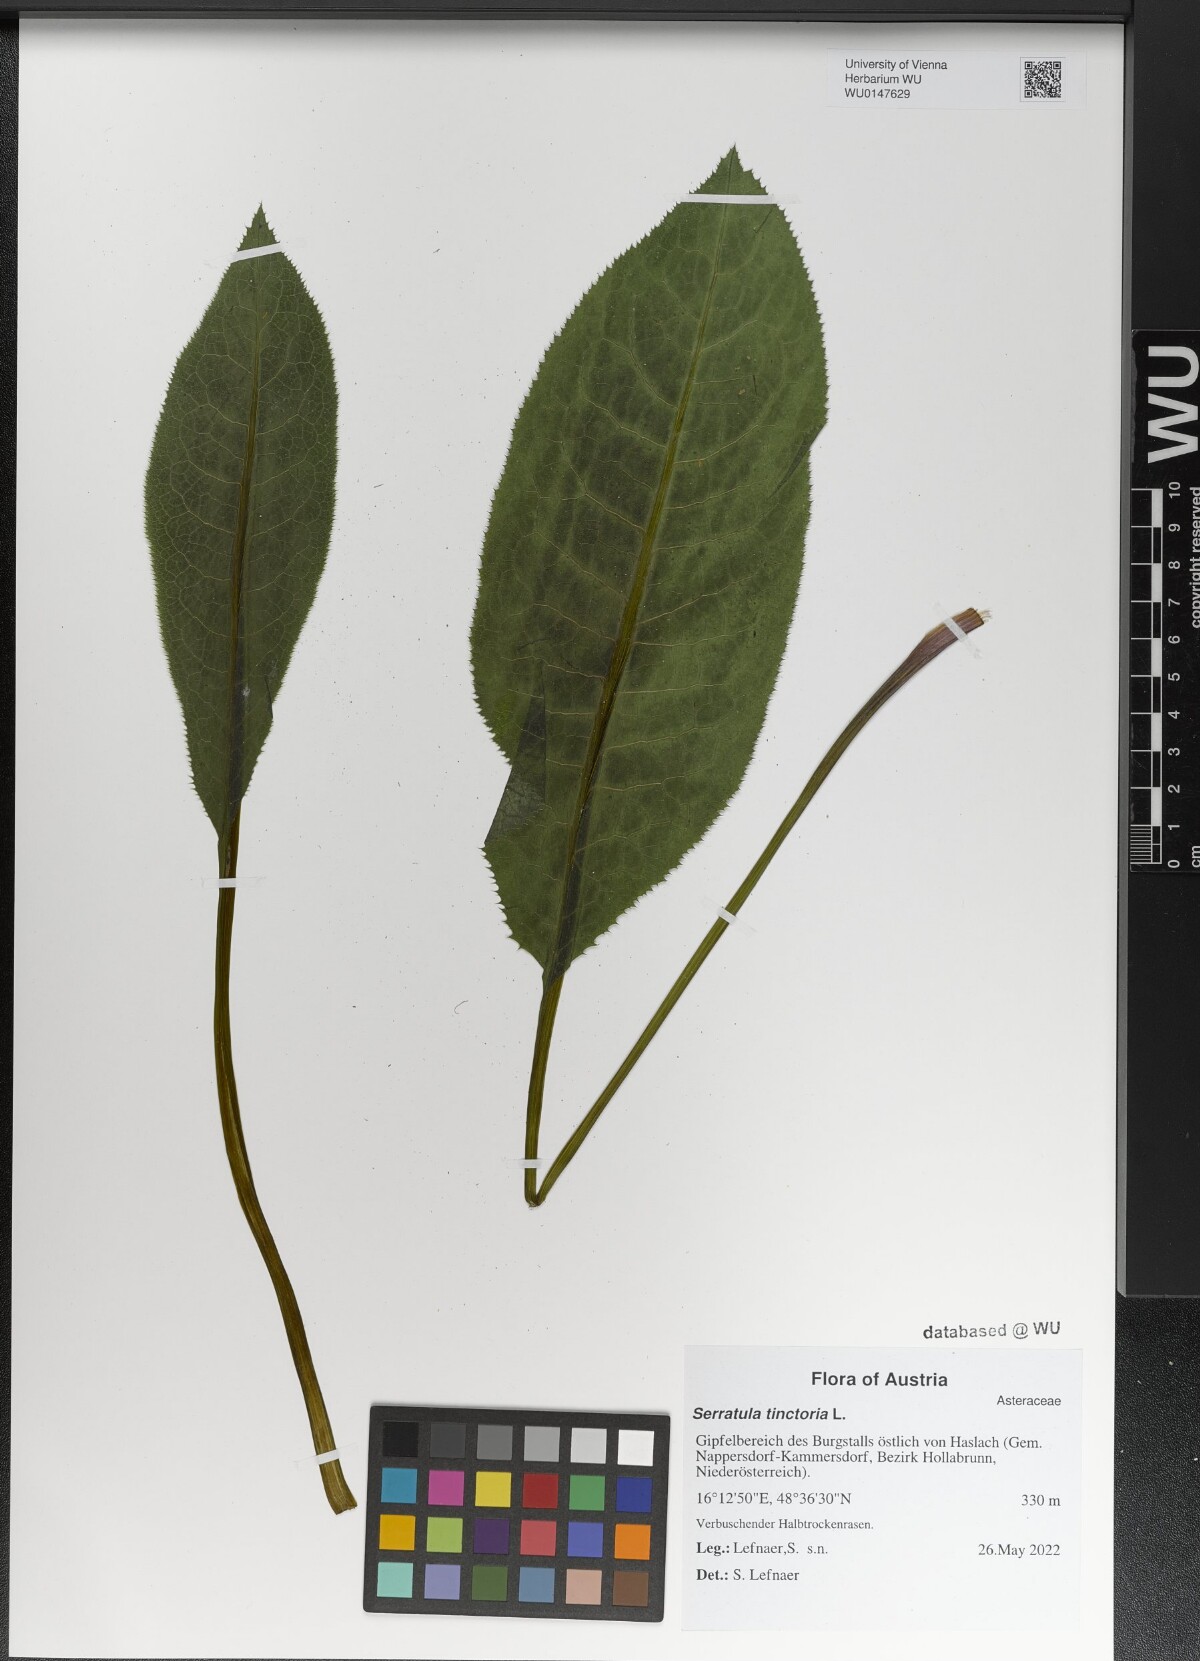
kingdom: Plantae
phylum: Tracheophyta
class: Magnoliopsida
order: Asterales
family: Asteraceae
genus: Serratula
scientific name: Serratula tinctoria
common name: Saw-wort
